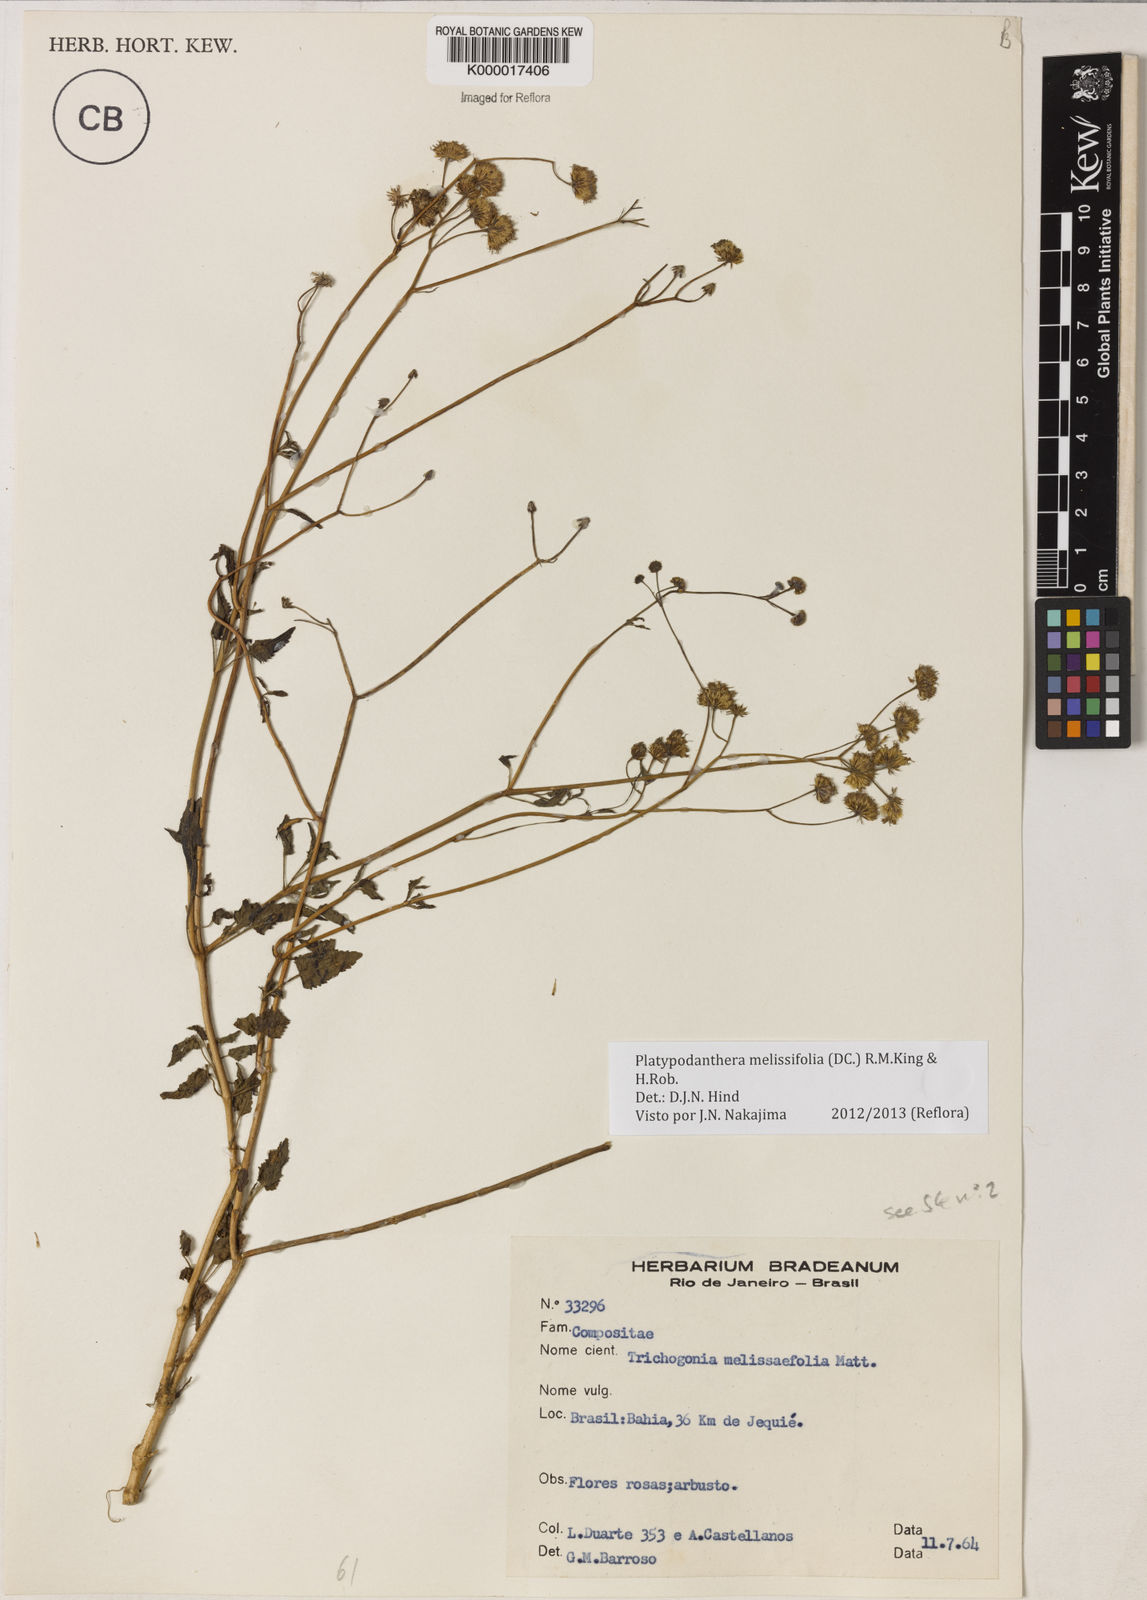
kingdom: Plantae
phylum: Tracheophyta
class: Magnoliopsida
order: Asterales
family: Asteraceae
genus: Platypodanthera
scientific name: Platypodanthera melissifolia
